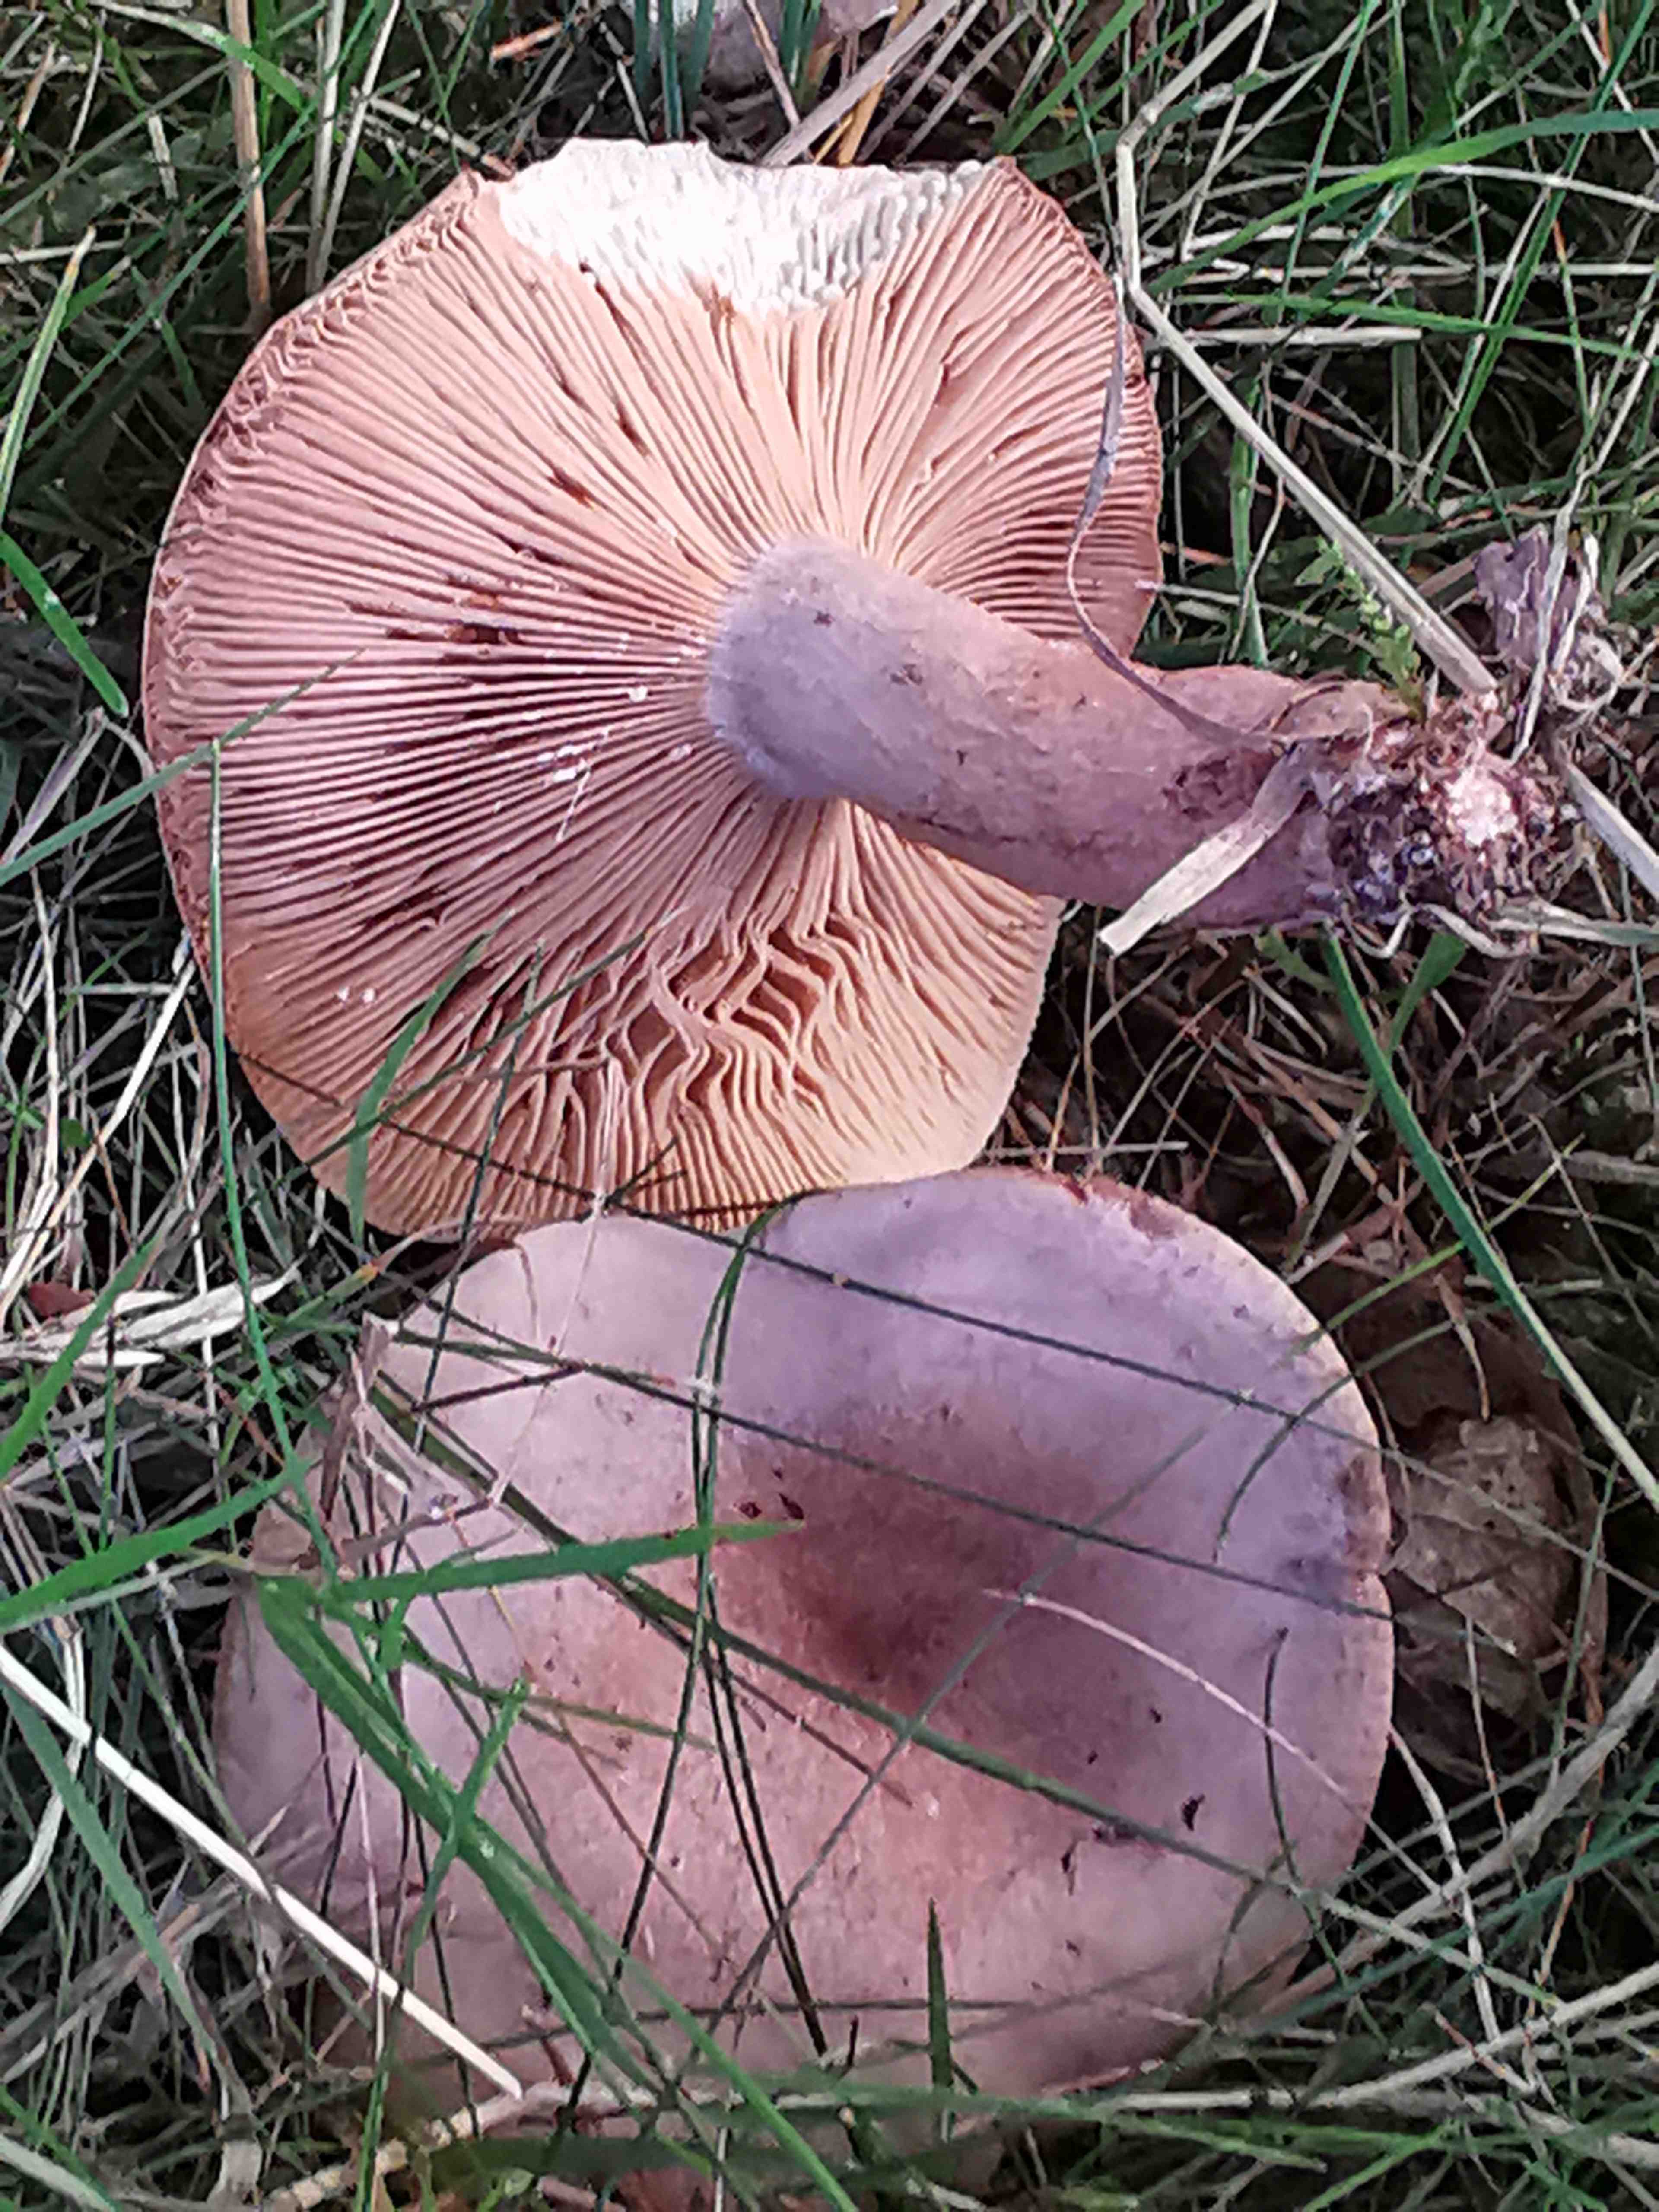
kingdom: Fungi
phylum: Basidiomycota
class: Agaricomycetes
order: Russulales
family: Russulaceae
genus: Lactarius
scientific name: Lactarius quietus
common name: ege-mælkehat
